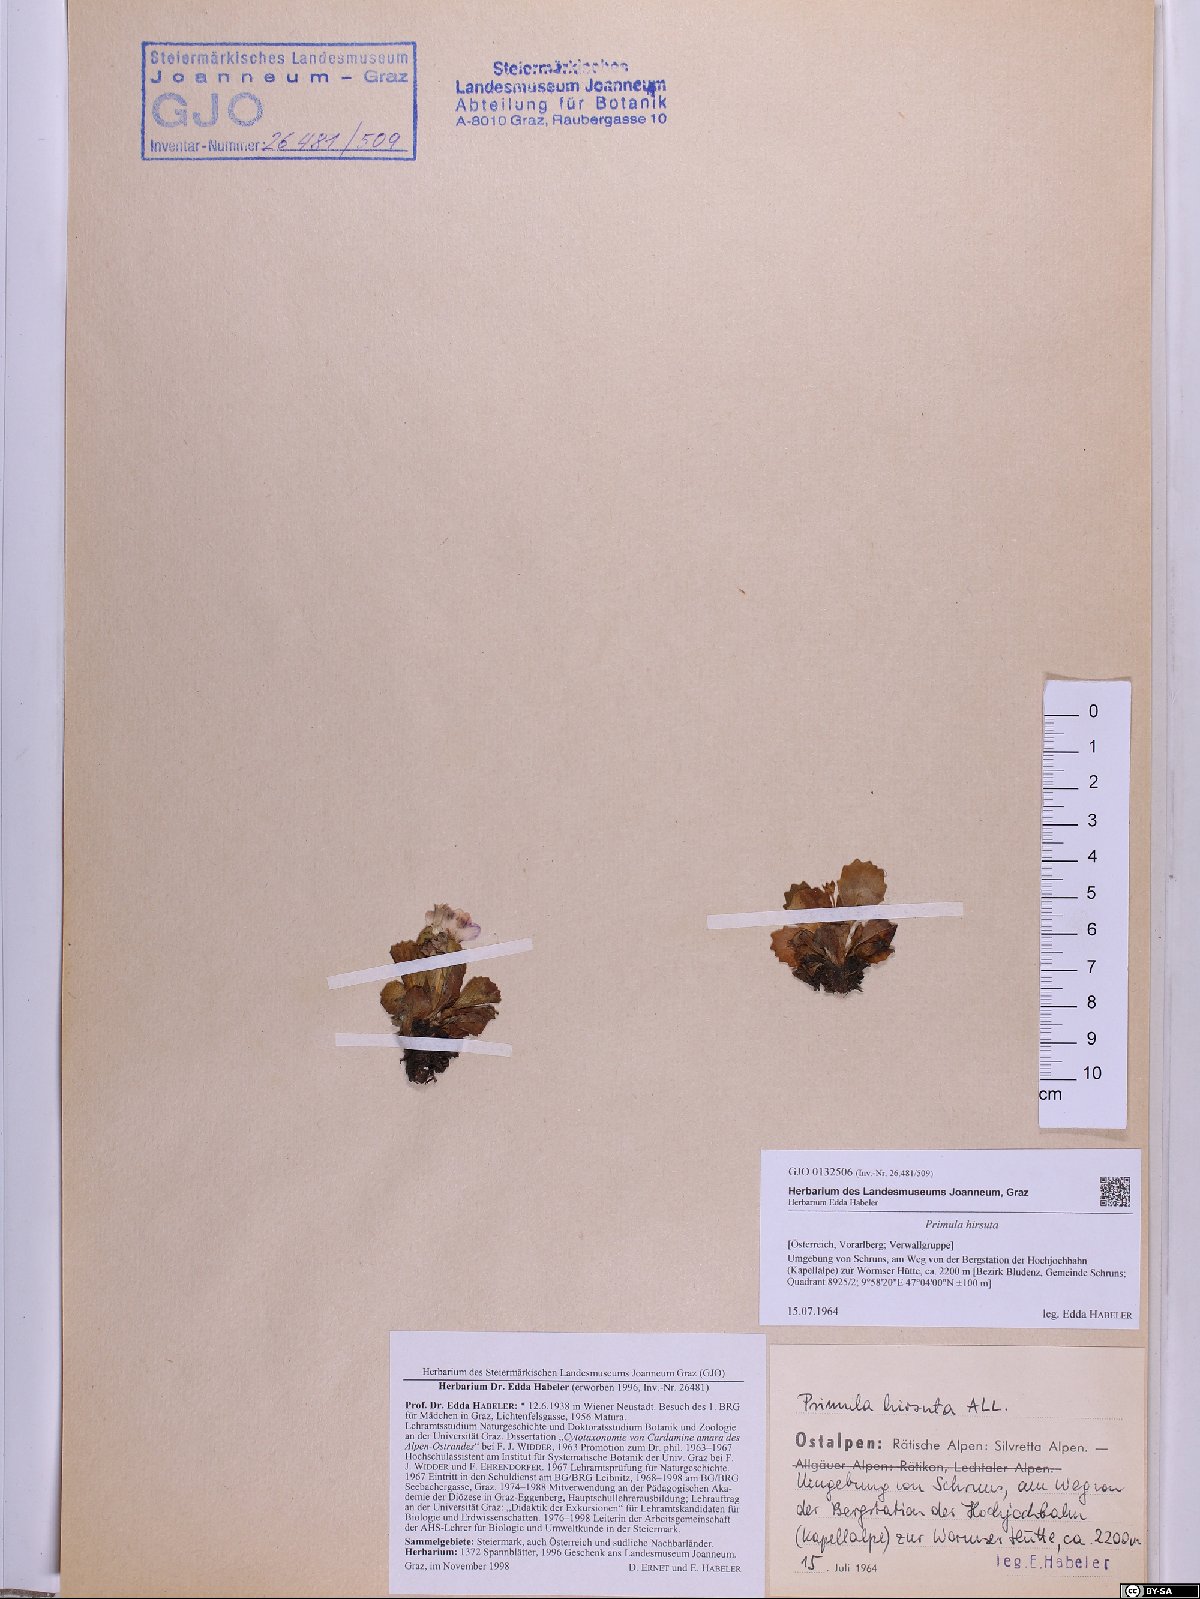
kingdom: Plantae
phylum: Tracheophyta
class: Magnoliopsida
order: Ericales
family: Primulaceae
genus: Primula
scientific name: Primula hirsuta
